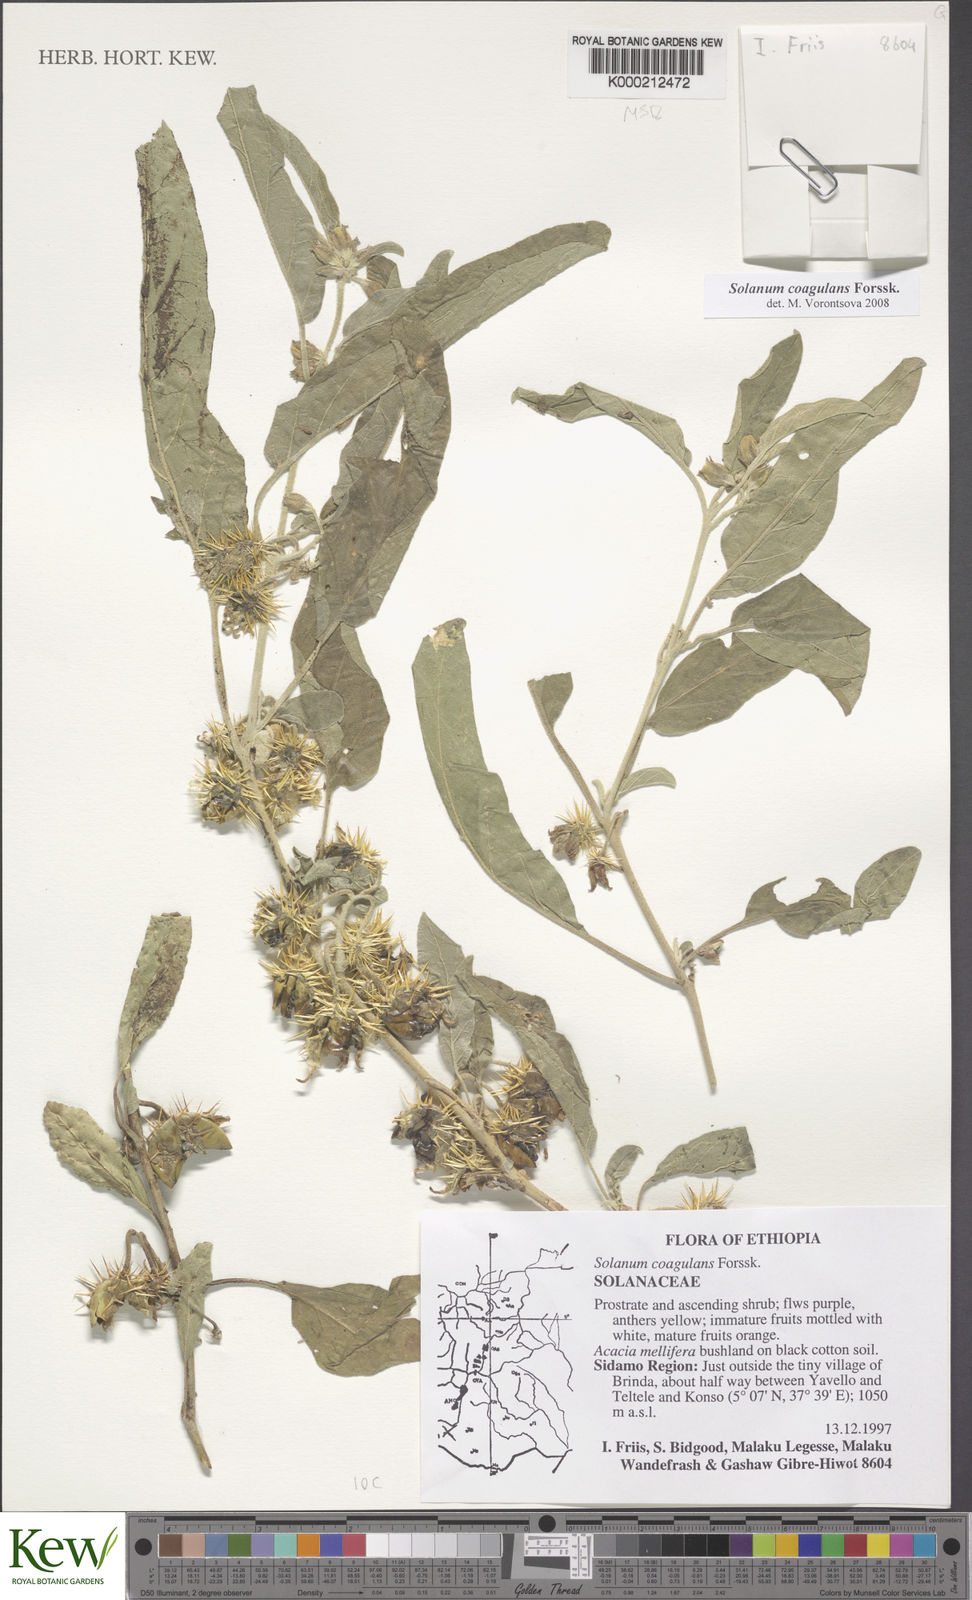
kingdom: Plantae
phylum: Tracheophyta
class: Magnoliopsida
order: Solanales
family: Solanaceae
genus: Solanum
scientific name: Solanum coagulans
